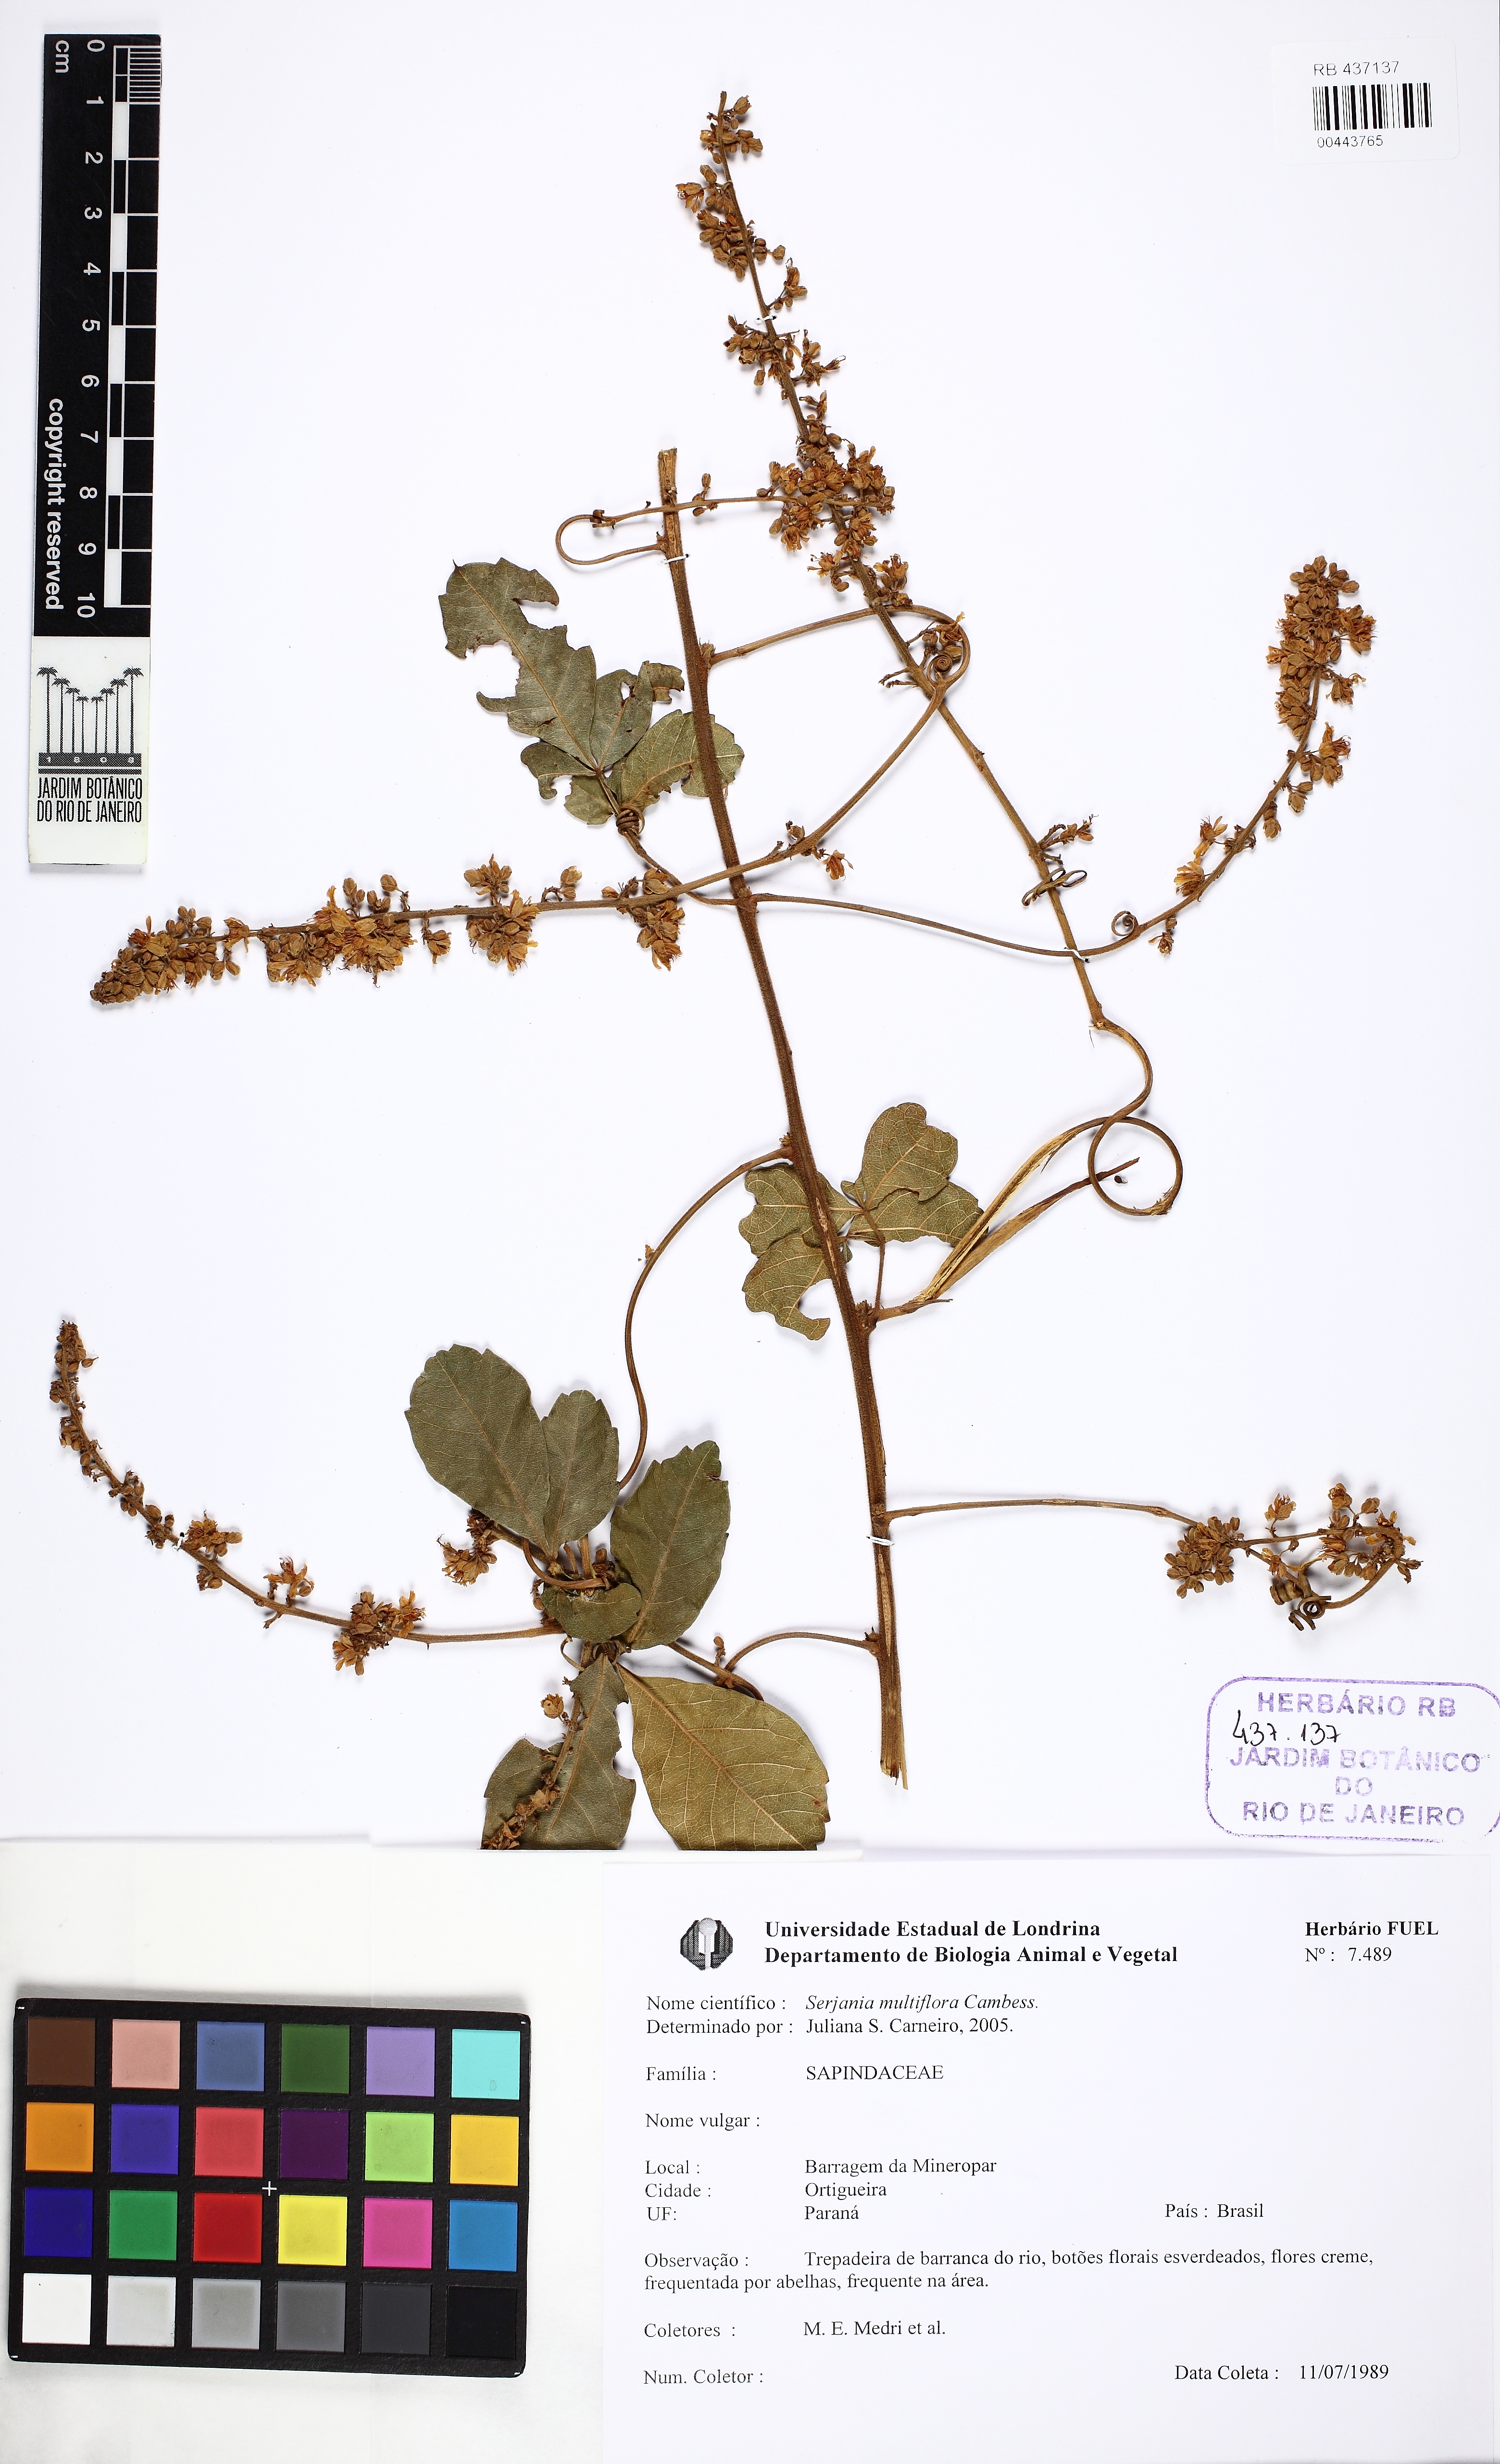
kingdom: Plantae
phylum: Tracheophyta
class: Magnoliopsida
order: Sapindales
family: Sapindaceae
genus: Serjania
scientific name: Serjania multiflora
